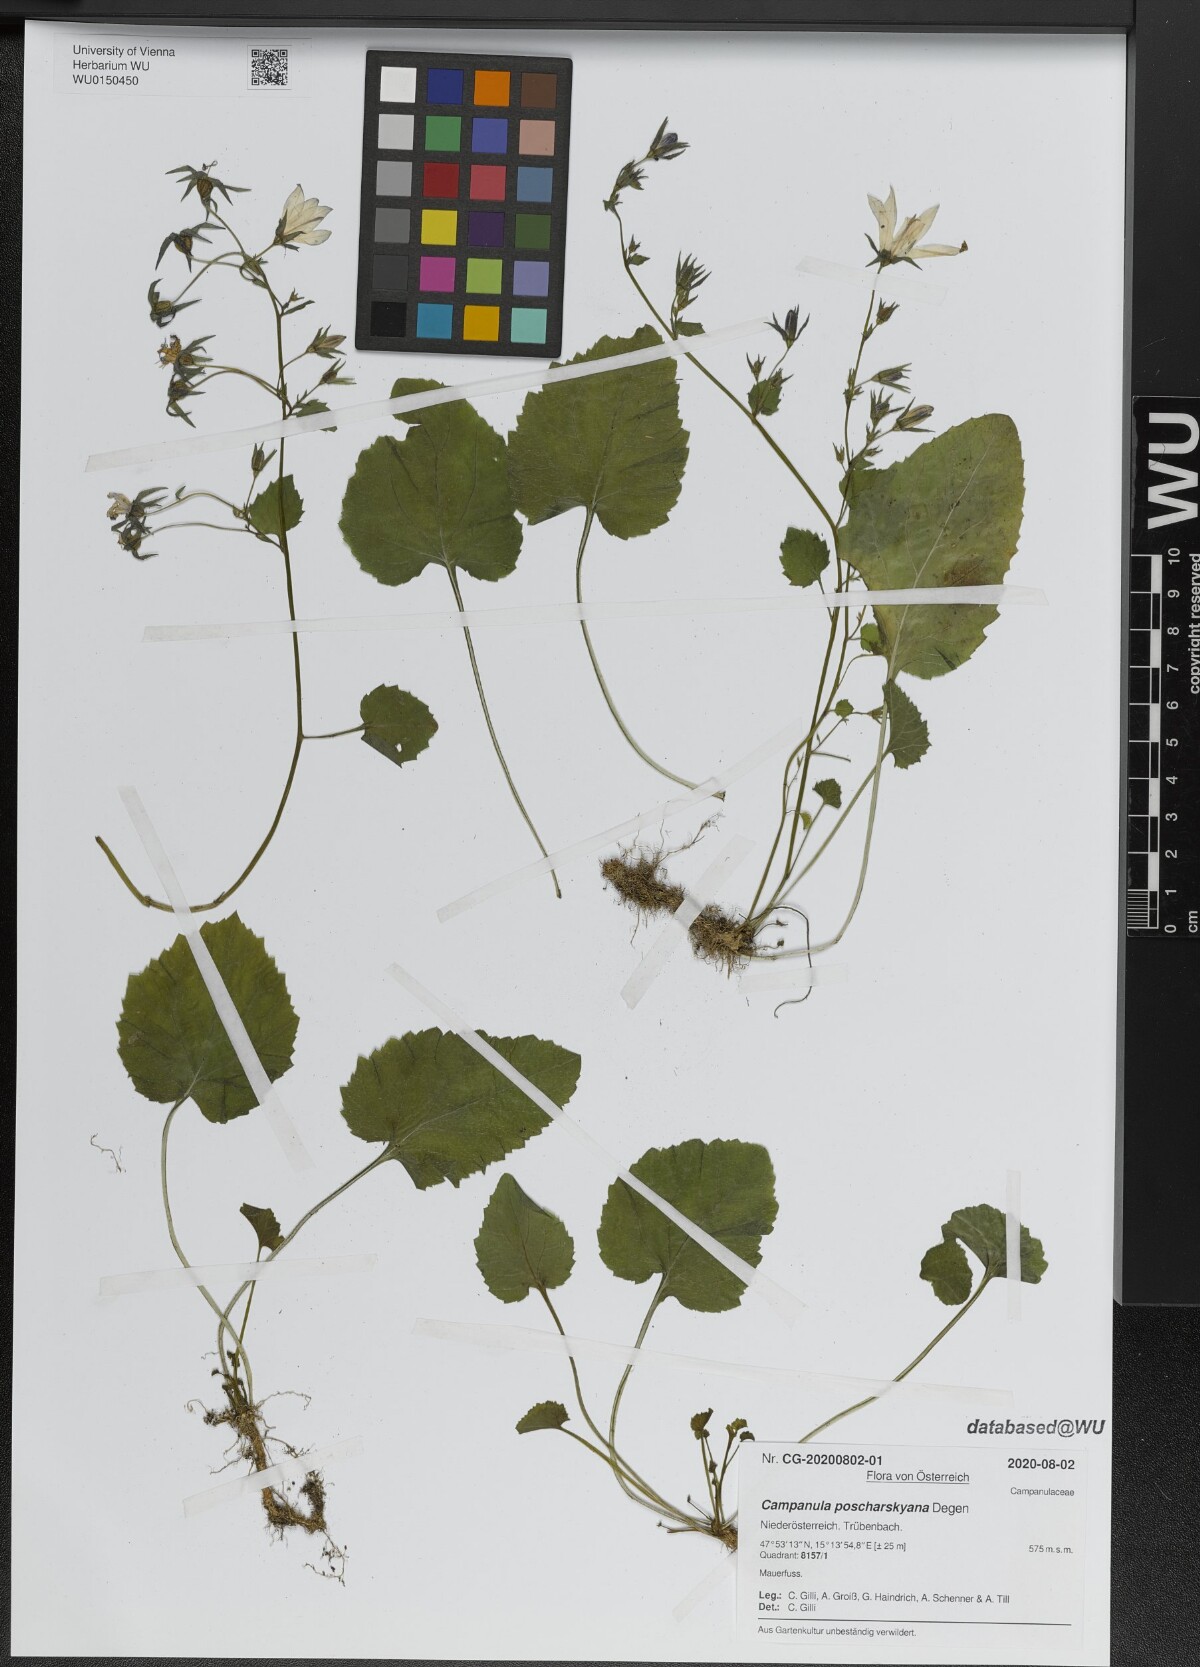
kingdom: Plantae
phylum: Tracheophyta
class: Magnoliopsida
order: Asterales
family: Campanulaceae
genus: Campanula
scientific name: Campanula poscharskyana
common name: Trailing bellflower
